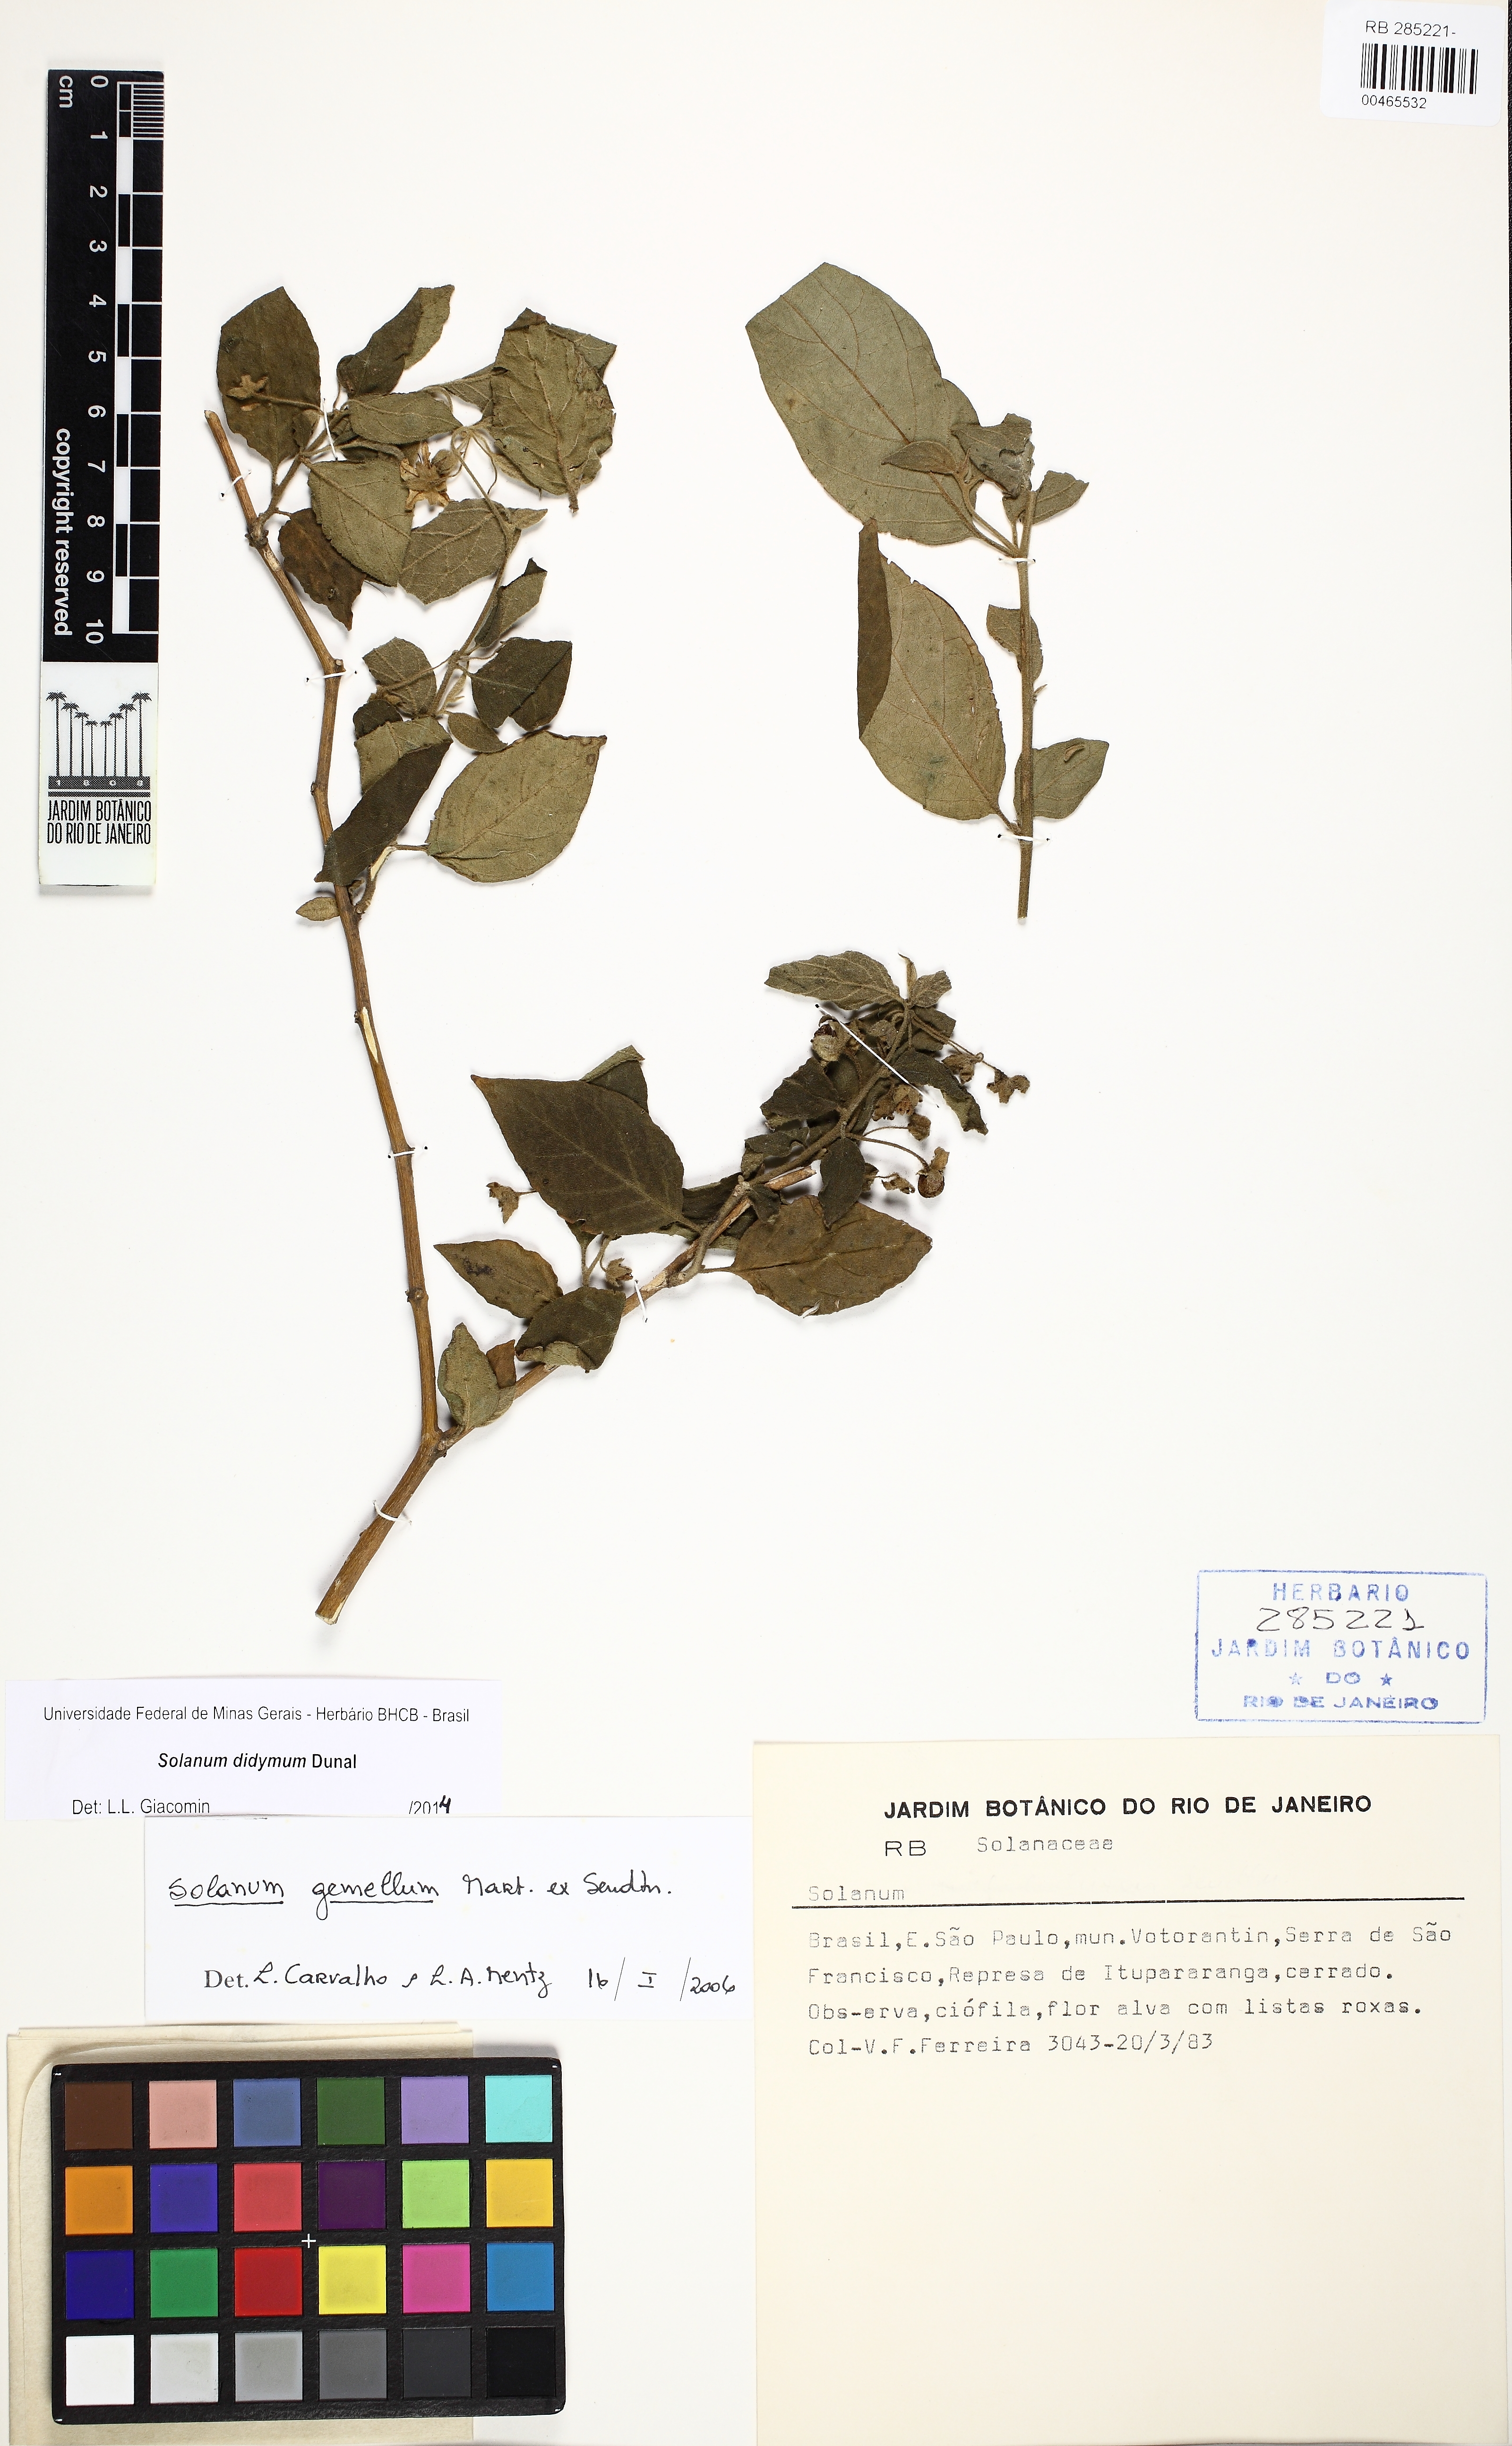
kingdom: Plantae
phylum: Tracheophyta
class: Magnoliopsida
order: Solanales
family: Solanaceae
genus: Solanum
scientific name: Solanum didymum
